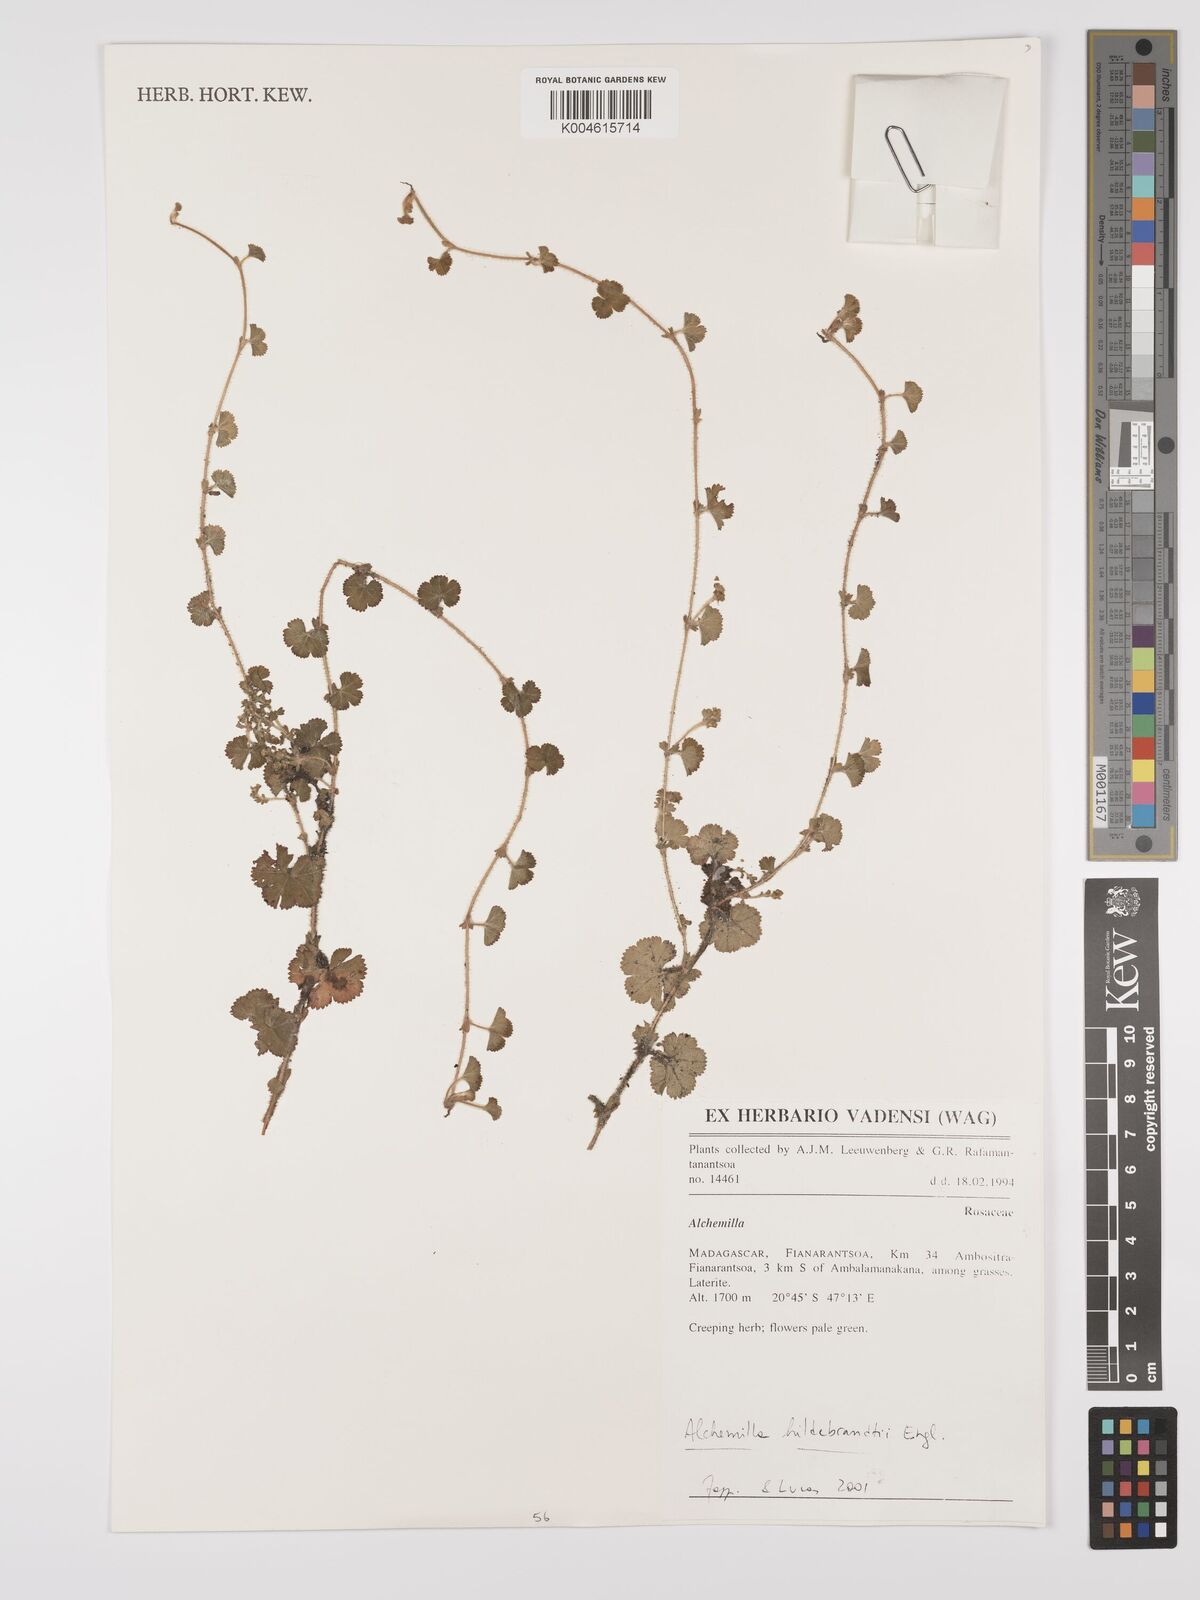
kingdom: Plantae
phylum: Tracheophyta
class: Magnoliopsida
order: Rosales
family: Rosaceae
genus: Alchemilla
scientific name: Alchemilla schizophylla
